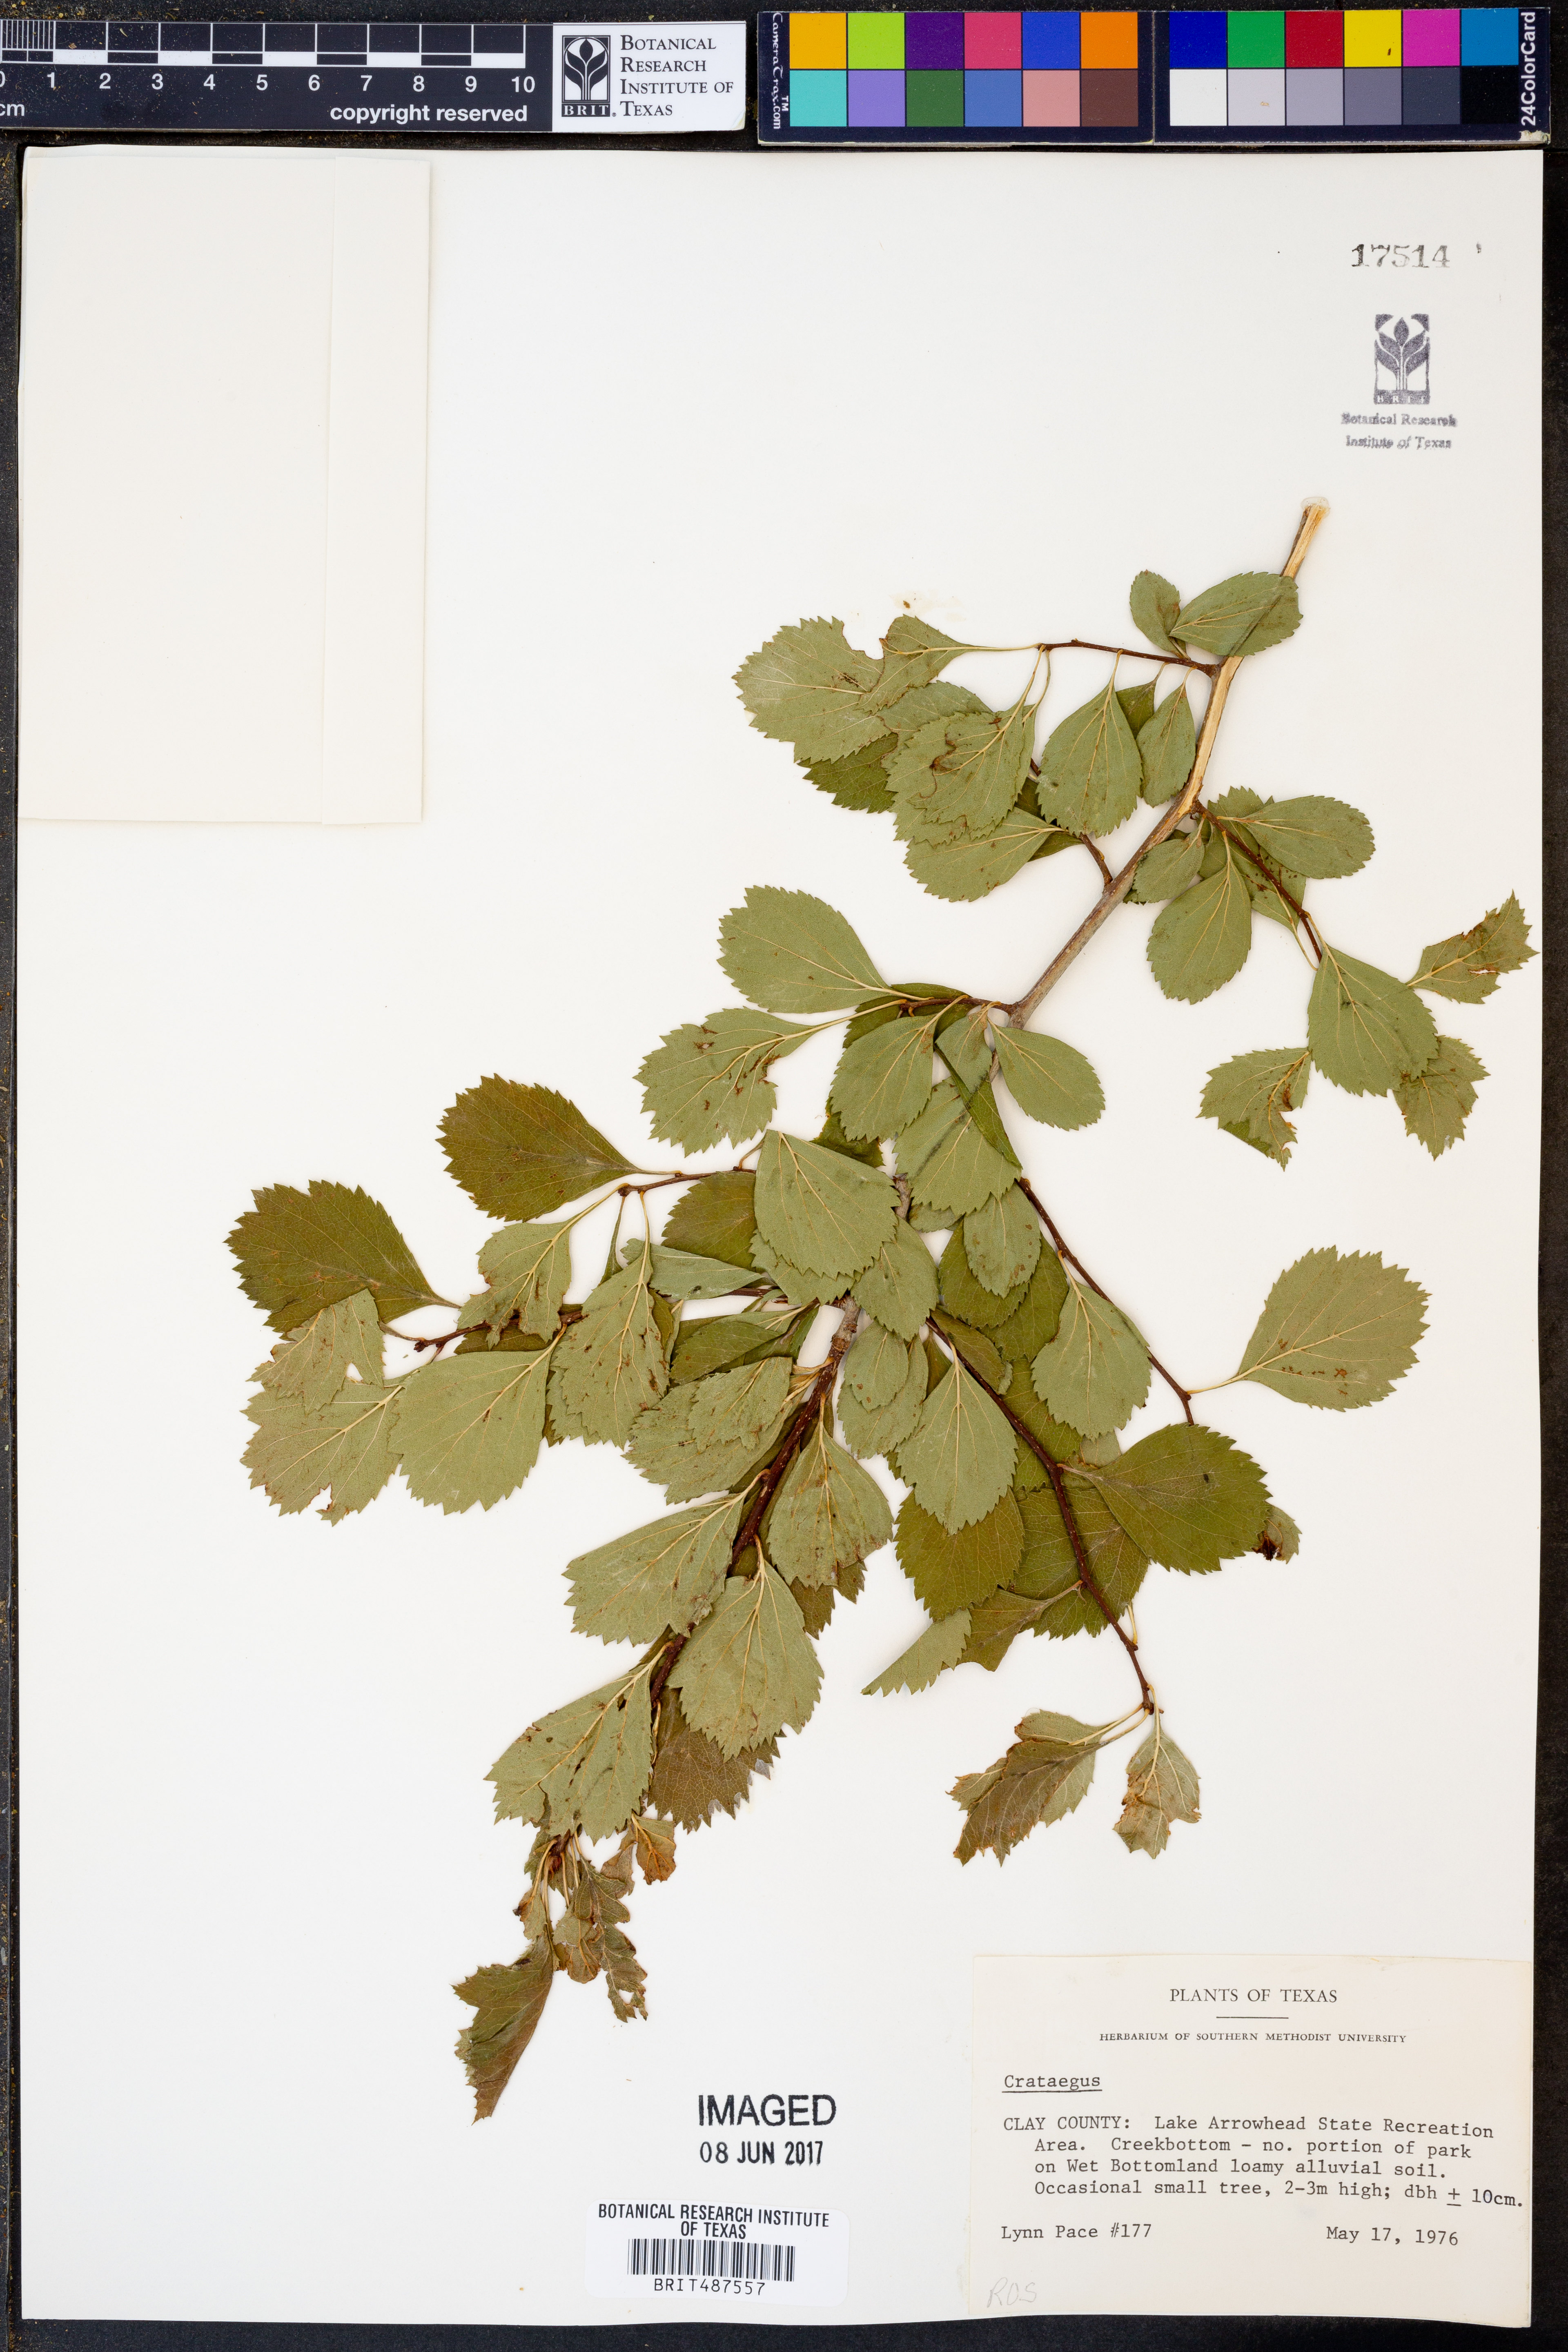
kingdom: Plantae
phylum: Tracheophyta
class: Magnoliopsida
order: Rosales
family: Rosaceae
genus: Crataegus
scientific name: Crataegus
